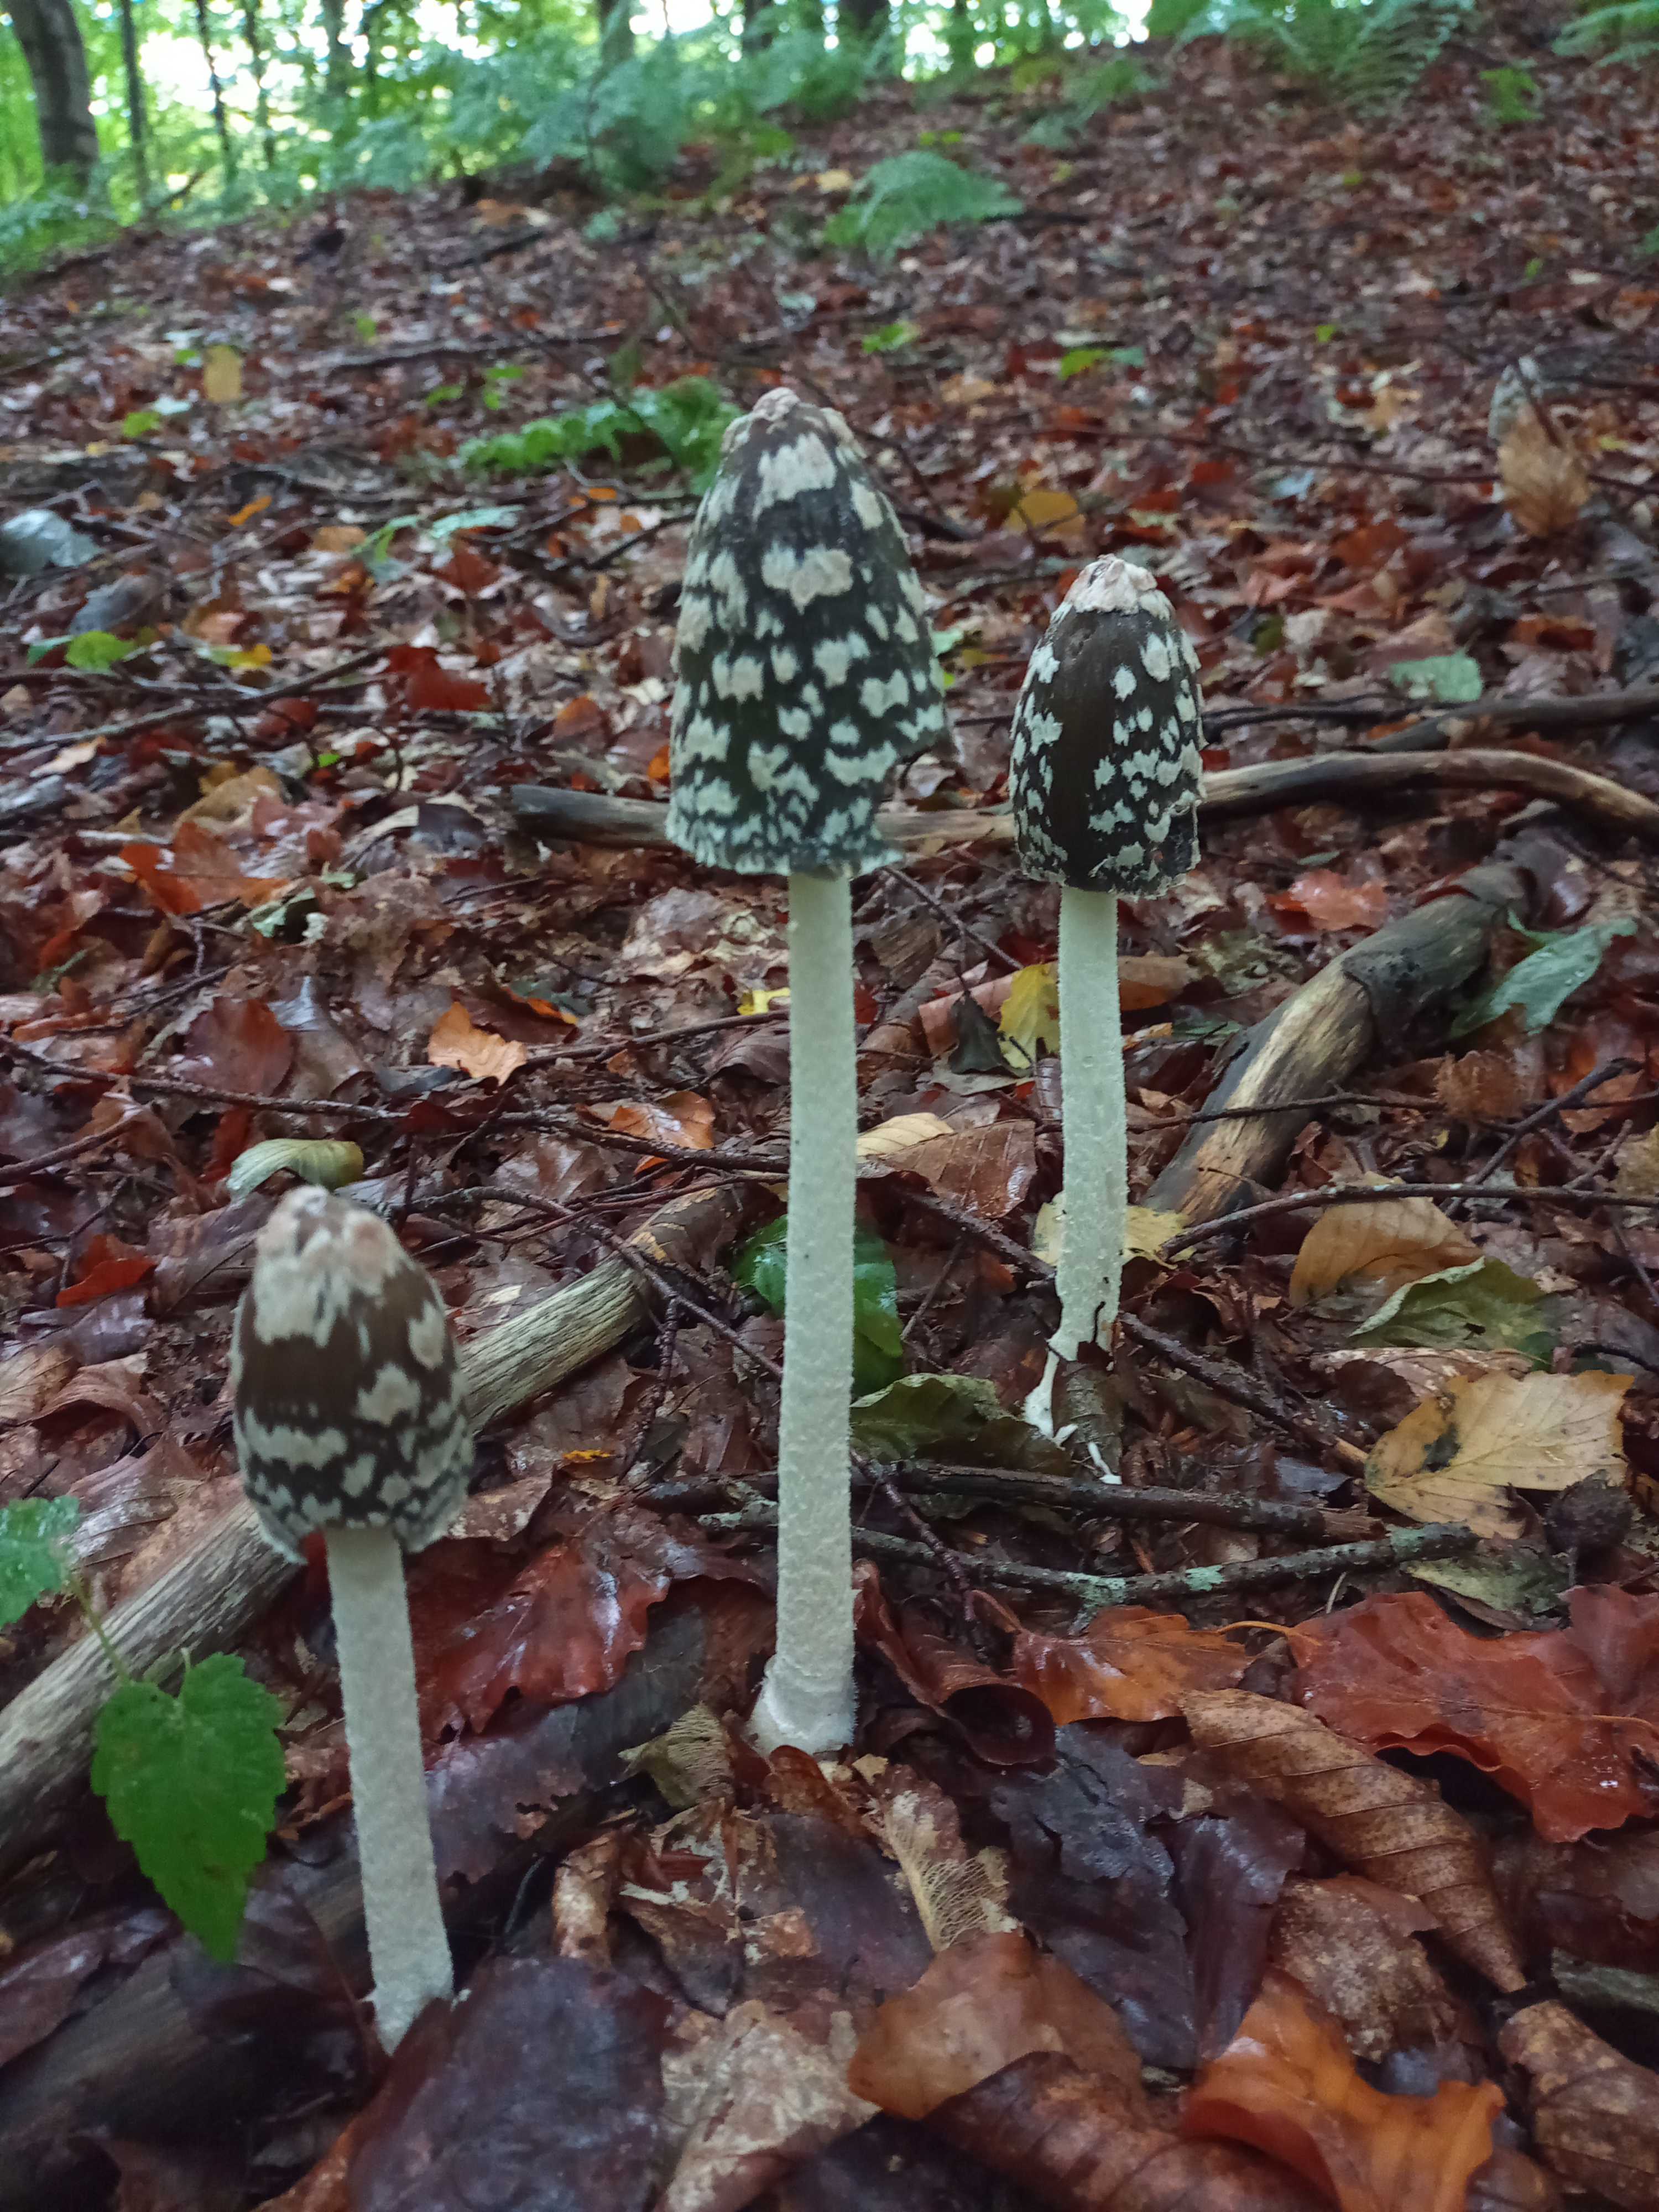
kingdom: Fungi
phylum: Basidiomycota
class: Agaricomycetes
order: Agaricales
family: Psathyrellaceae
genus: Coprinopsis
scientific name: Coprinopsis picacea
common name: skade-blækhat
